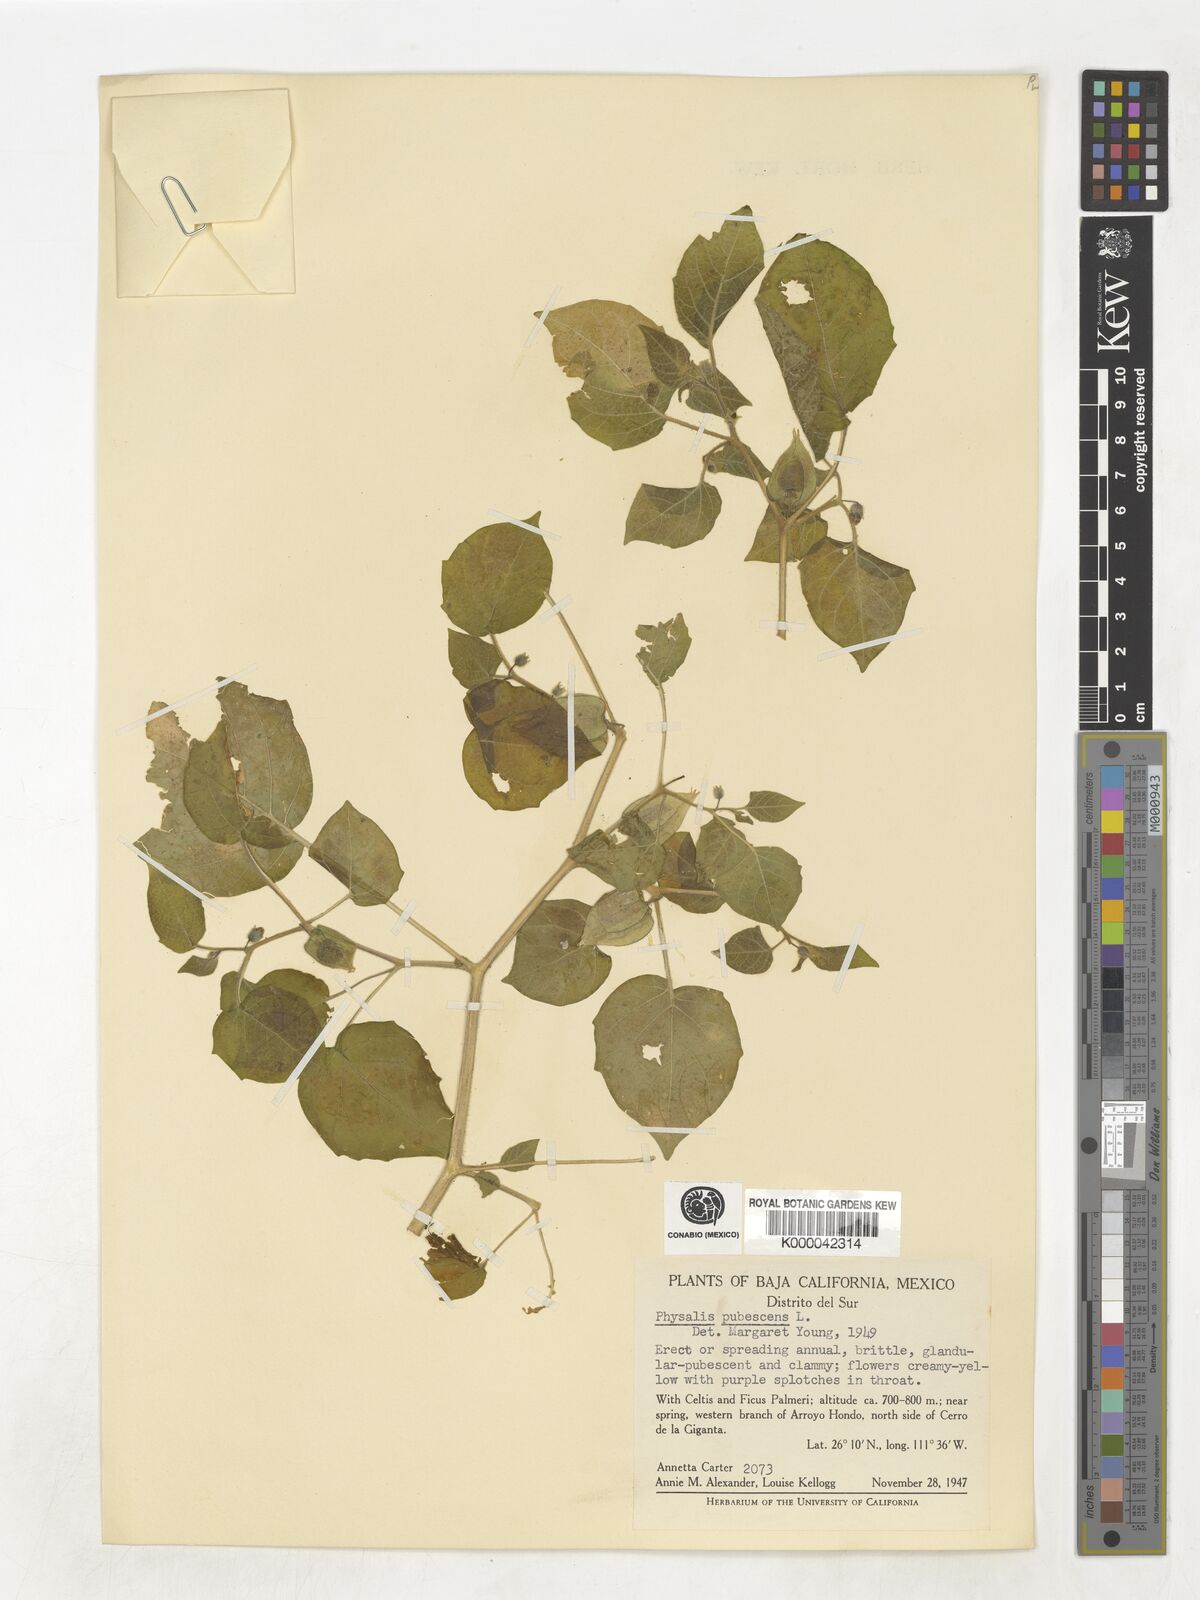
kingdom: Plantae
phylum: Tracheophyta
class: Magnoliopsida
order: Solanales
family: Solanaceae
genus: Physalis
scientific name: Physalis pubescens
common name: Downy ground-cherry
